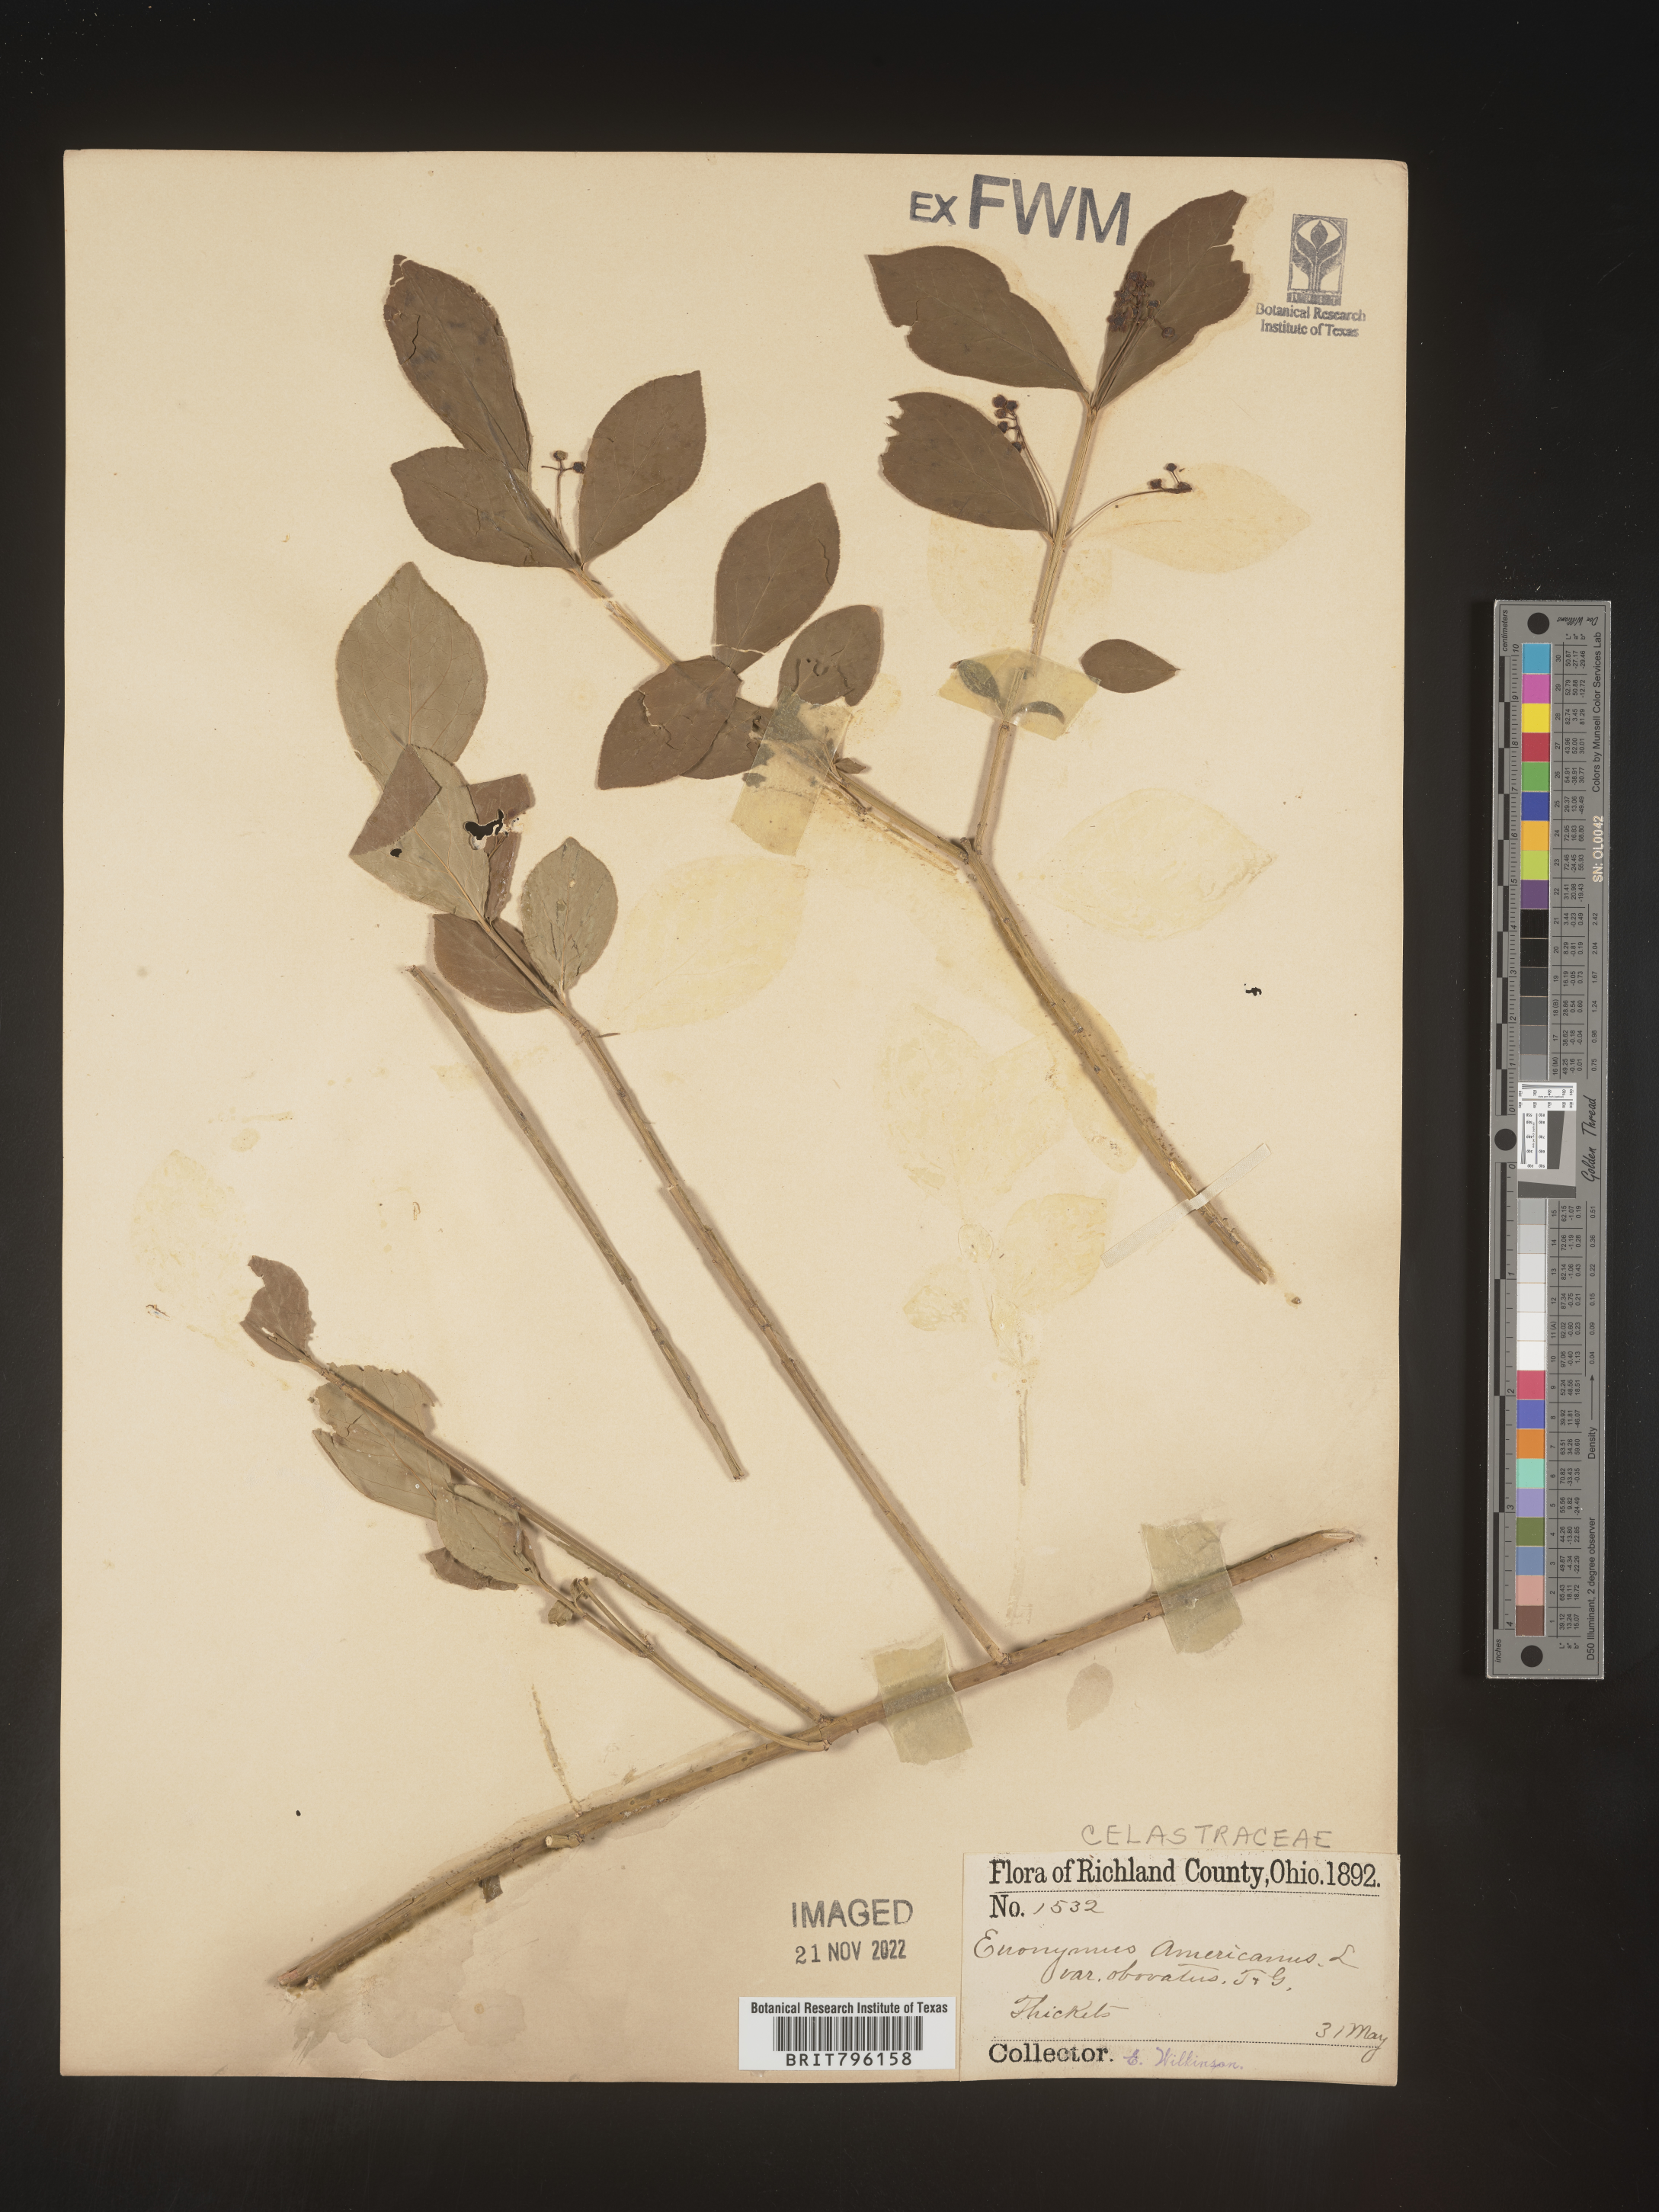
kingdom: Plantae
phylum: Tracheophyta
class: Magnoliopsida
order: Celastrales
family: Celastraceae
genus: Euonymus
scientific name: Euonymus americanus
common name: Bursting-heart
